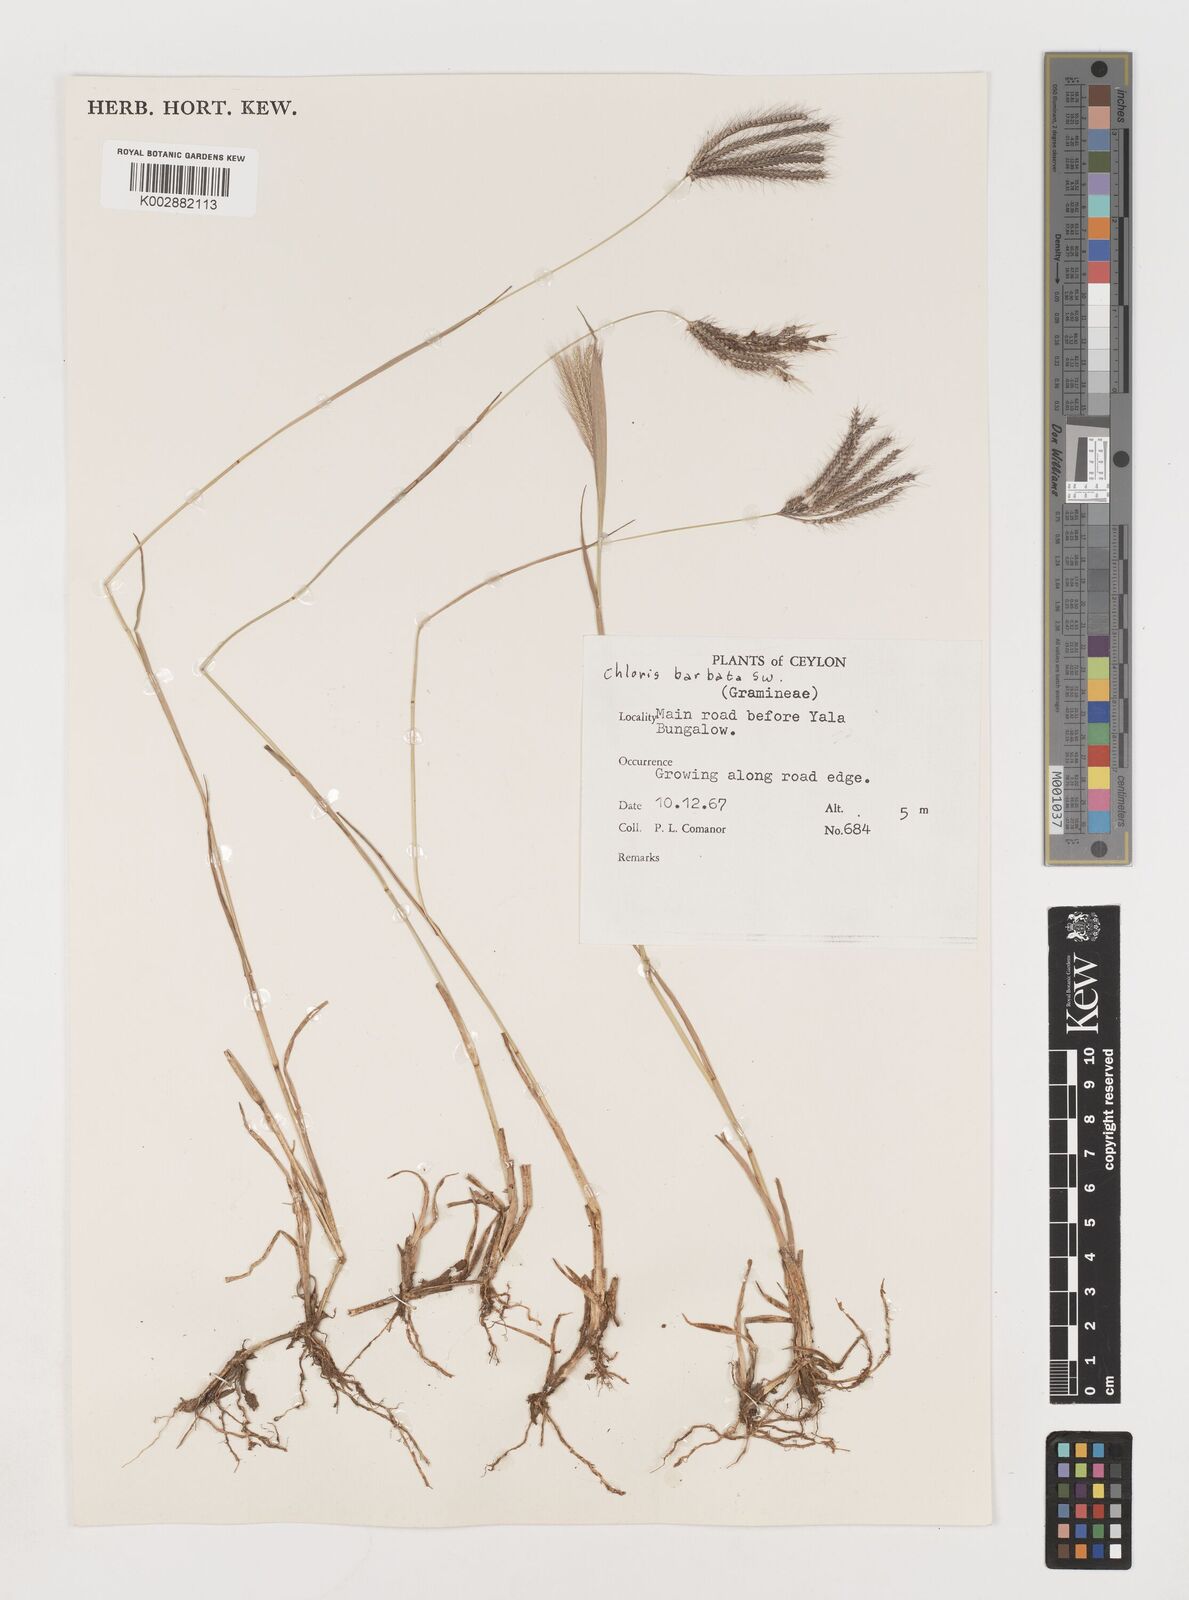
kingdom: Plantae
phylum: Tracheophyta
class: Liliopsida
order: Poales
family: Poaceae
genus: Chloris
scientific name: Chloris barbata
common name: Swollen fingergrass
